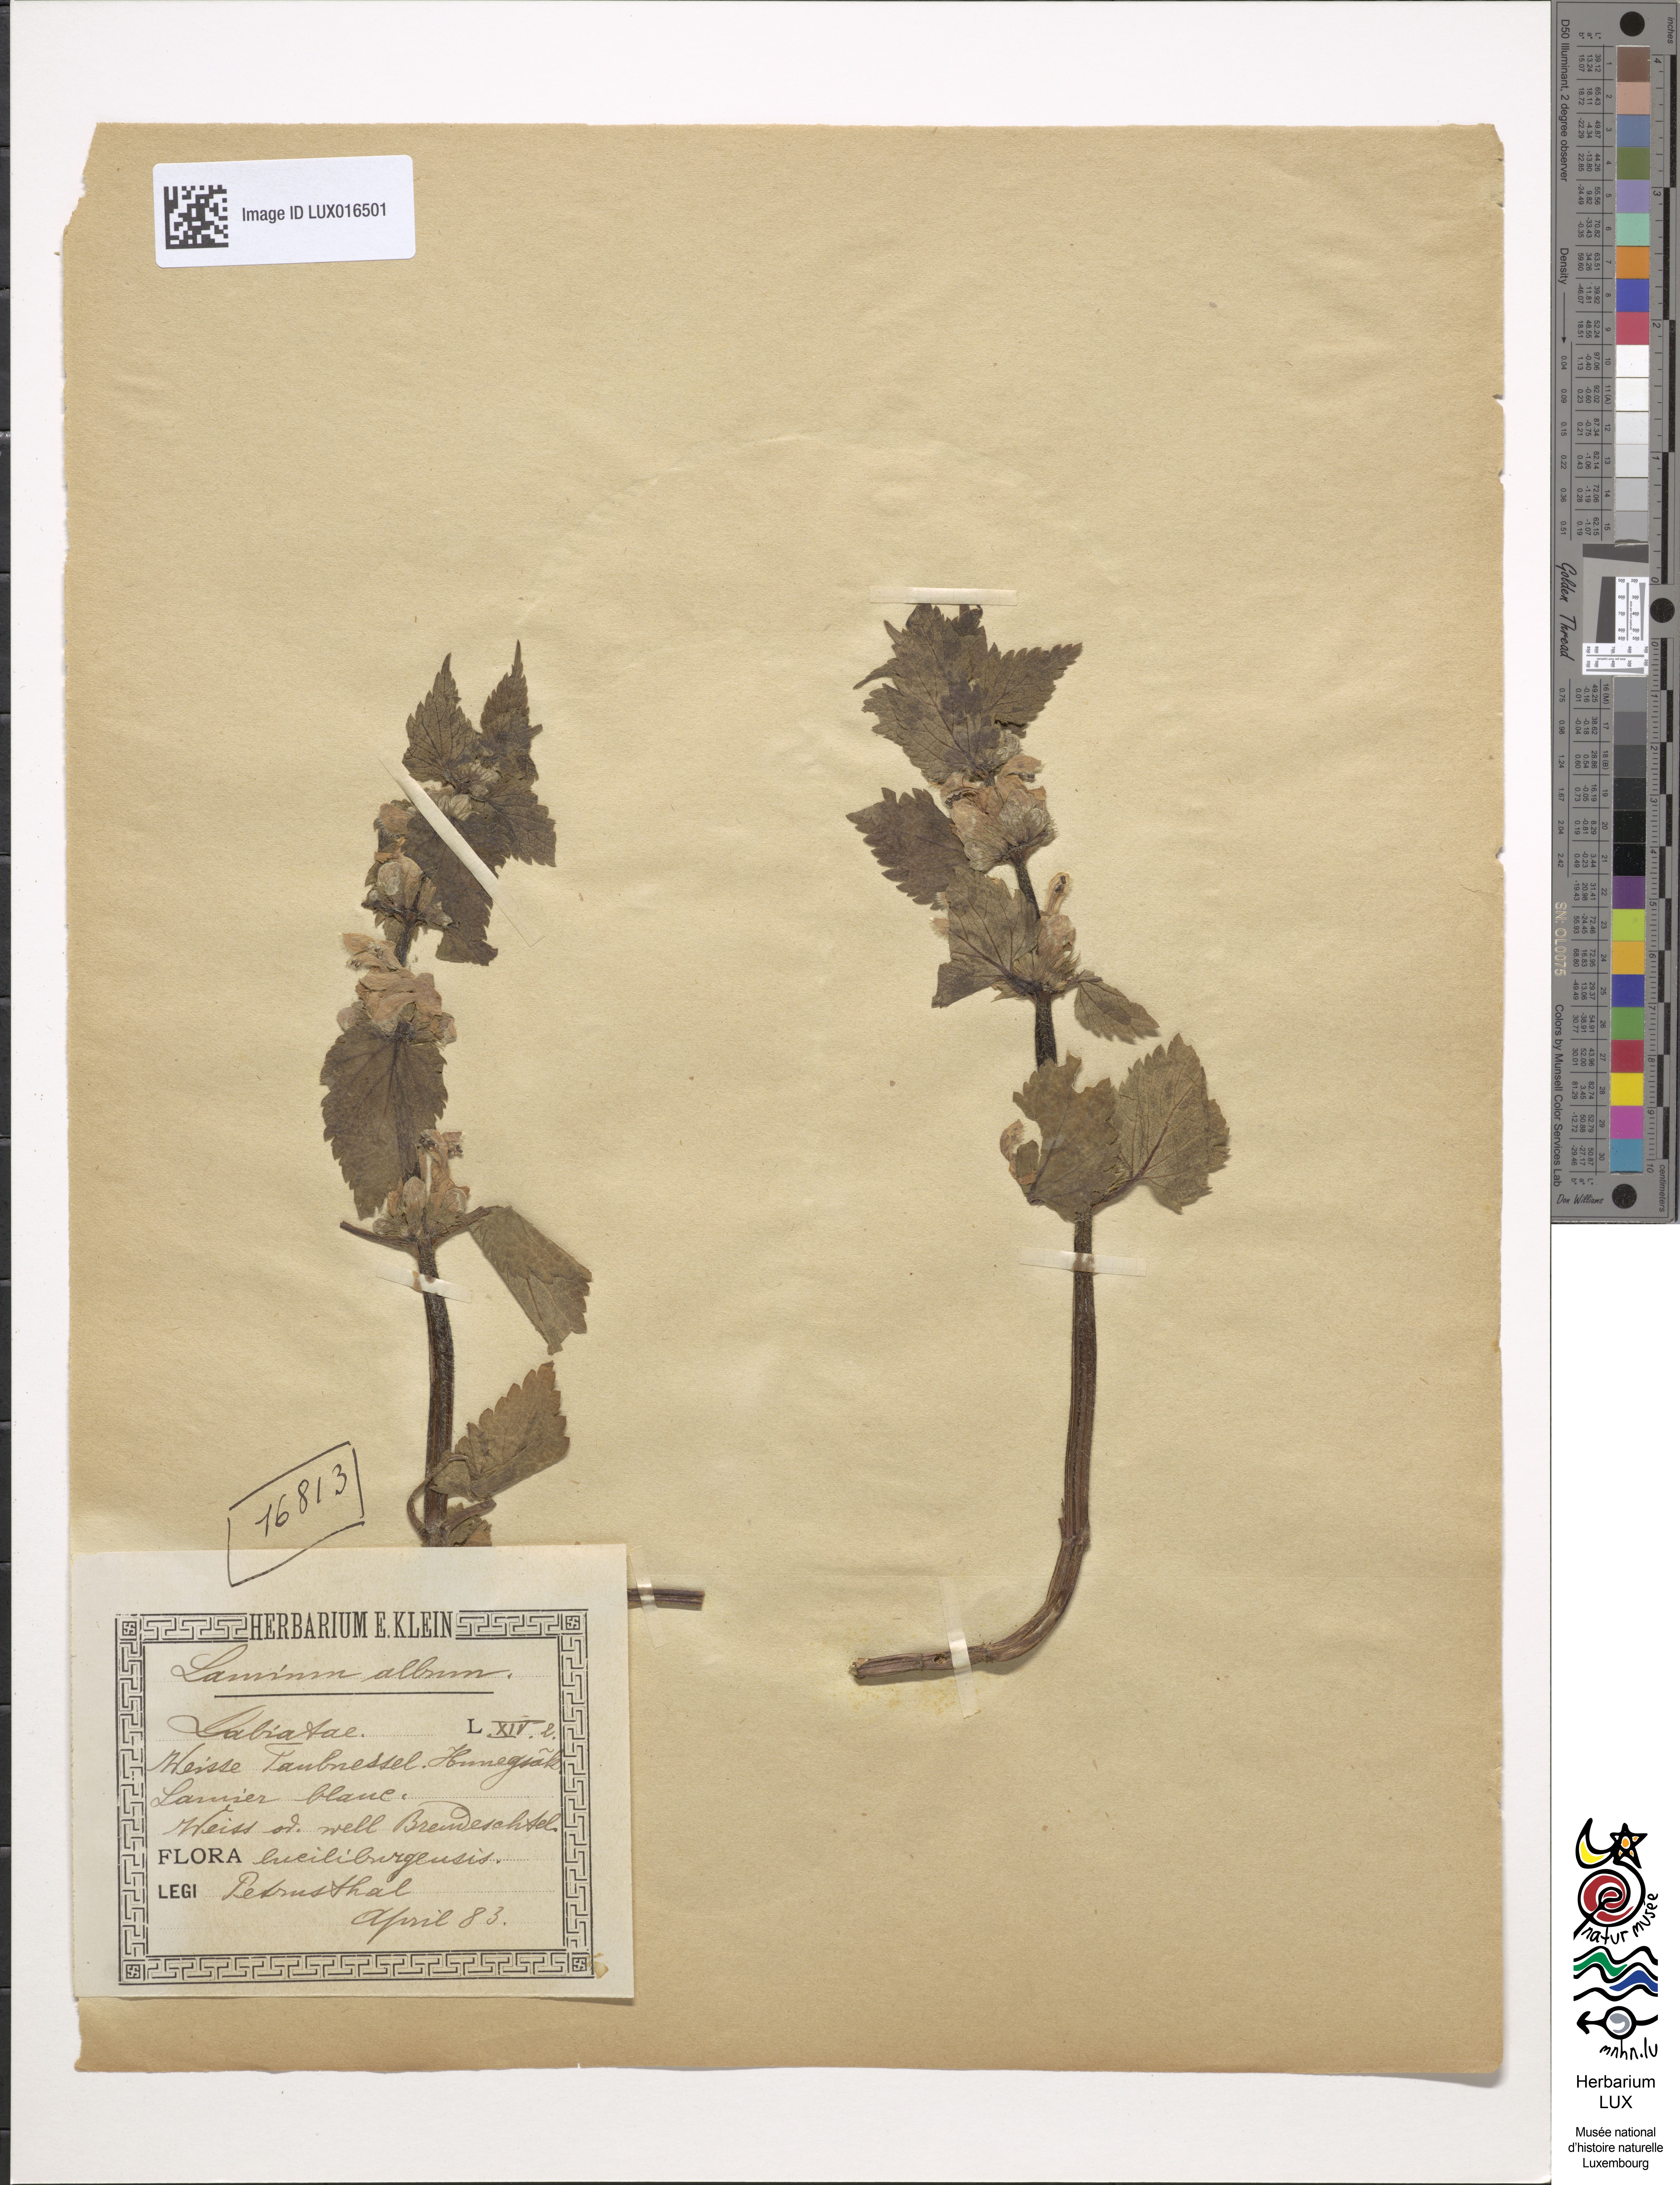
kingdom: Plantae
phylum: Tracheophyta
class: Magnoliopsida
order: Lamiales
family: Lamiaceae
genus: Lamium
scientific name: Lamium album
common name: White dead-nettle
